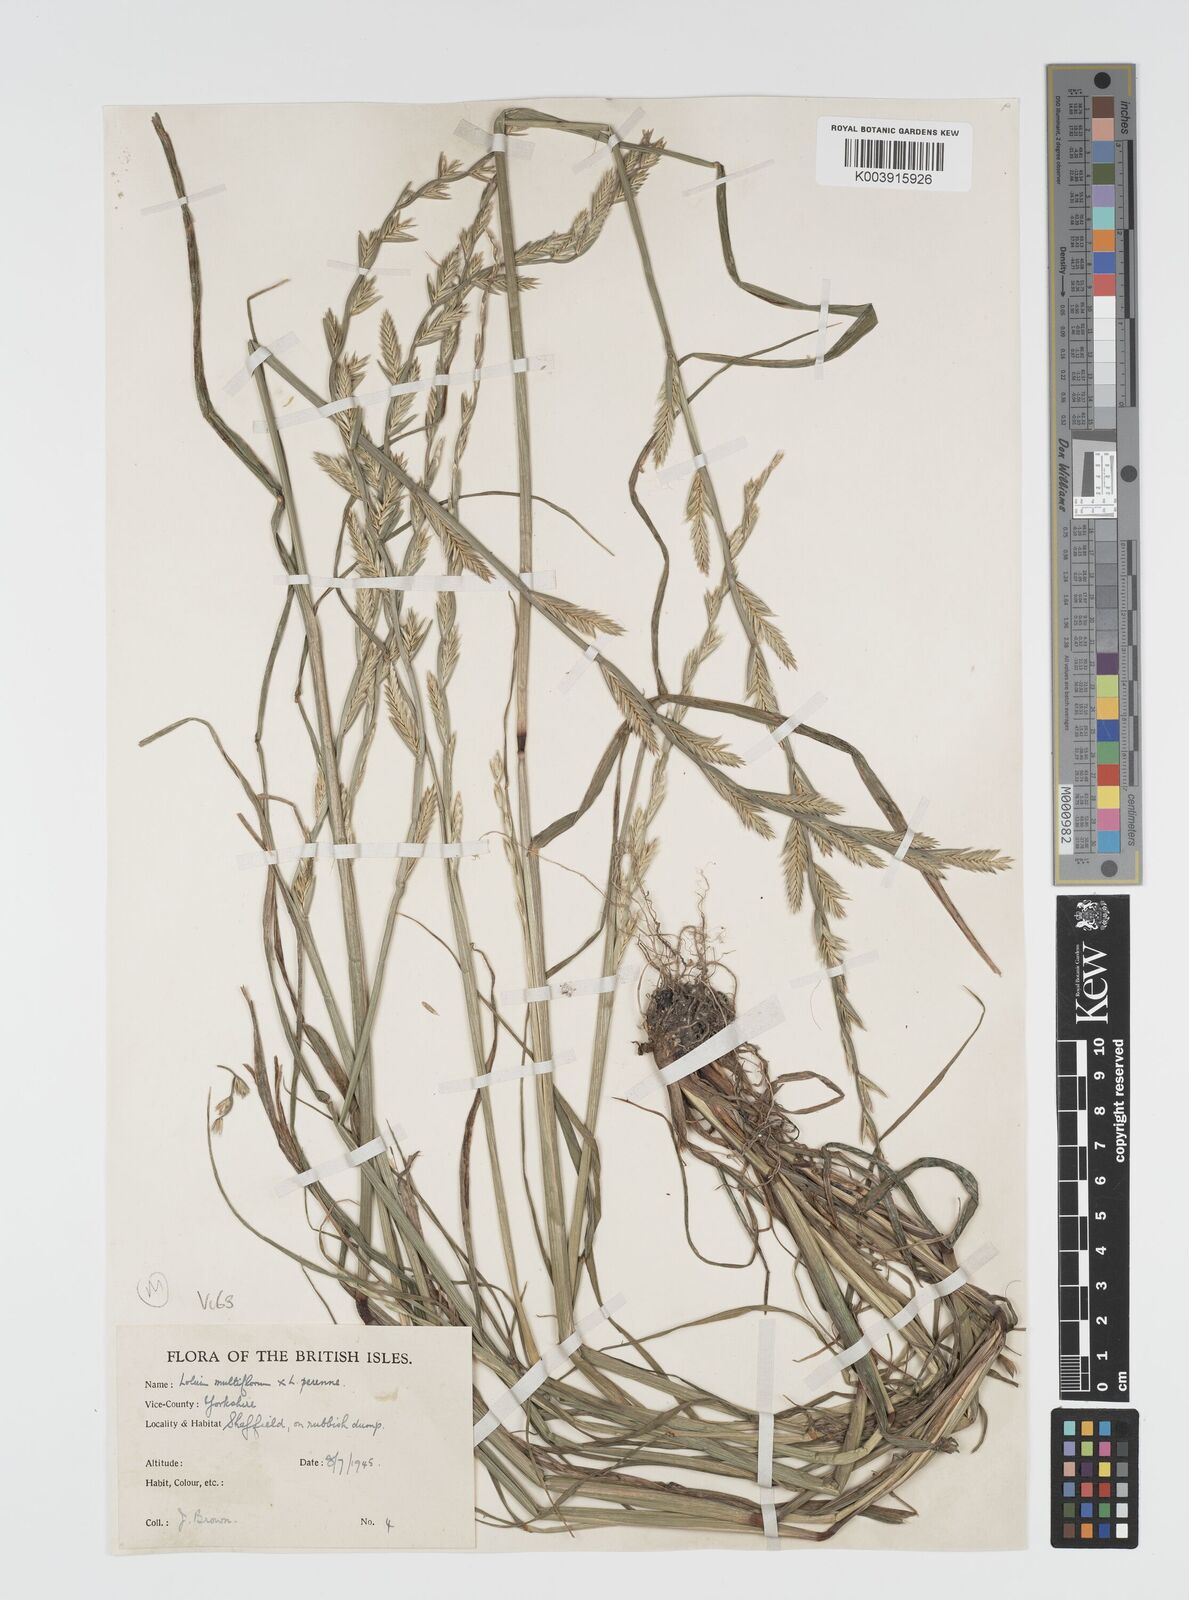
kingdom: Plantae
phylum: Tracheophyta
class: Liliopsida
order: Poales
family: Poaceae
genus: Lolium
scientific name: Lolium multiflorum
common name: Annual ryegrass
